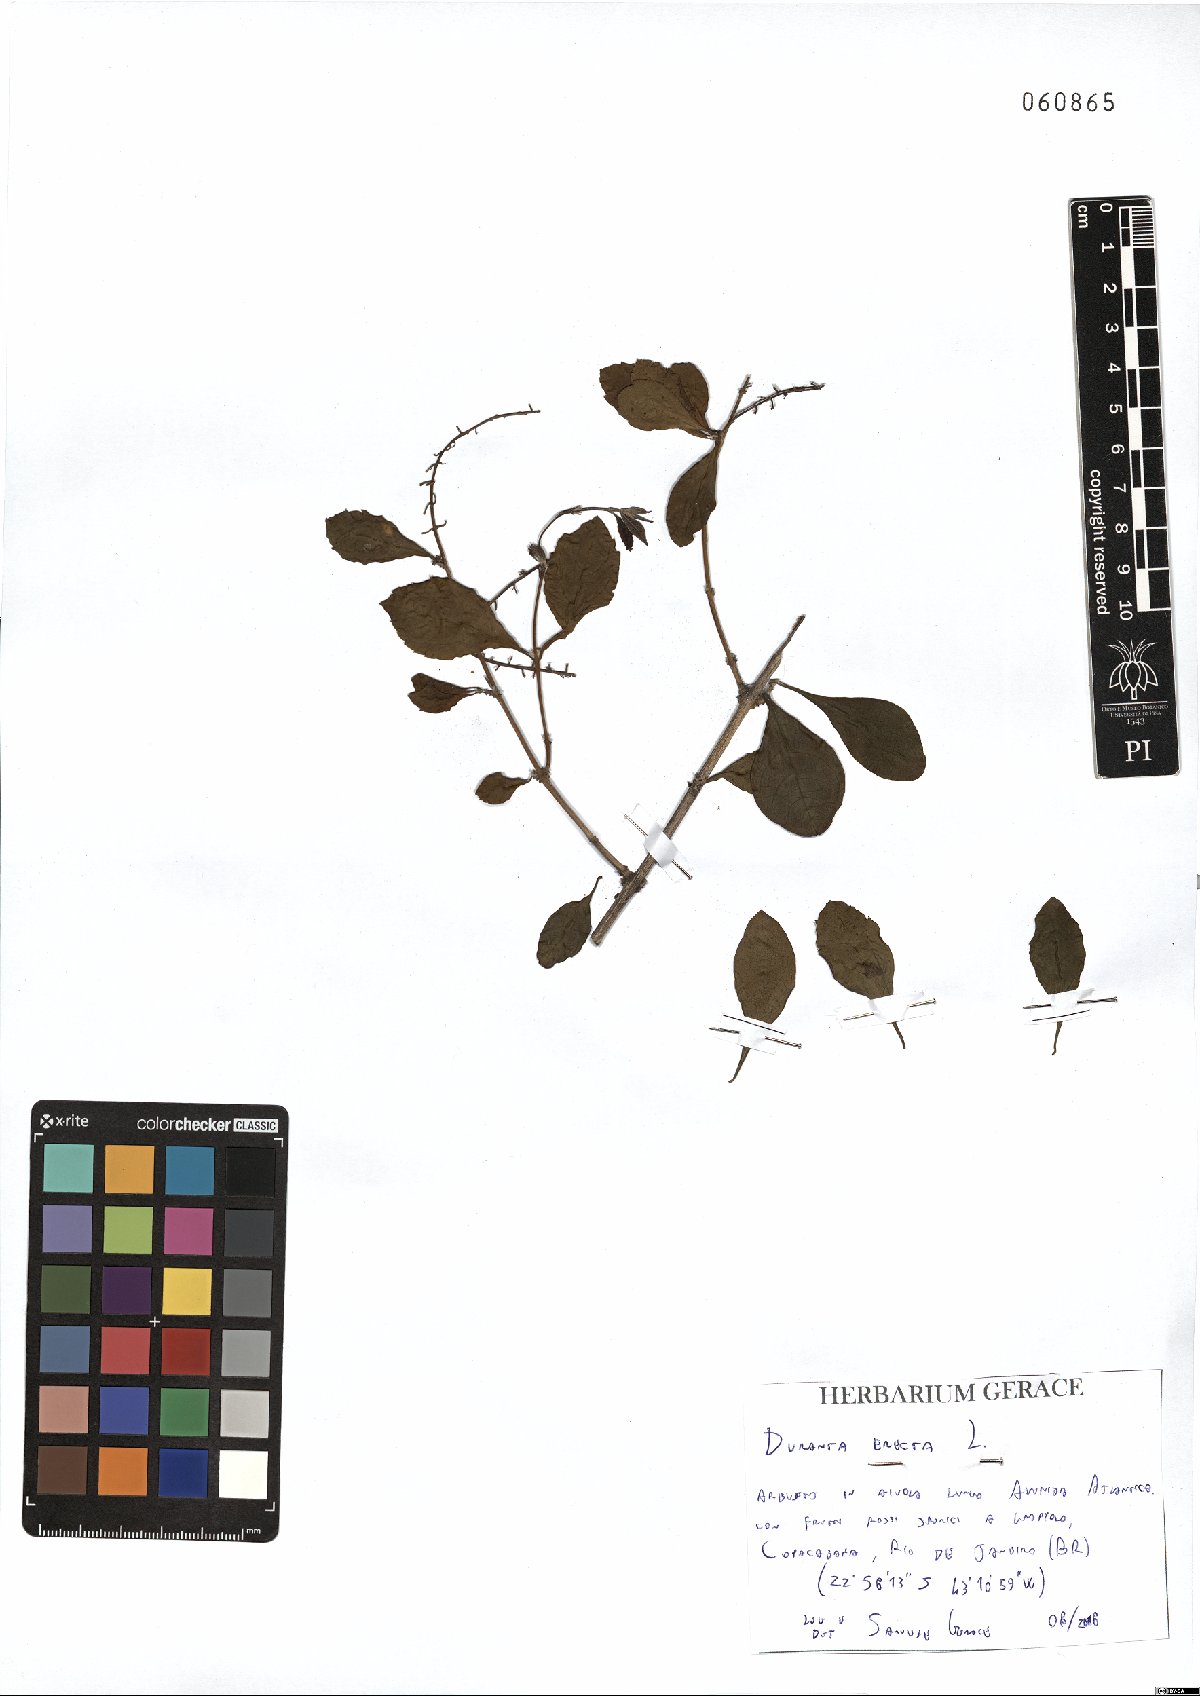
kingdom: Plantae
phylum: Tracheophyta
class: Magnoliopsida
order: Lamiales
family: Verbenaceae
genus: Duranta
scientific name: Duranta erecta
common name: Golden dewdrops
